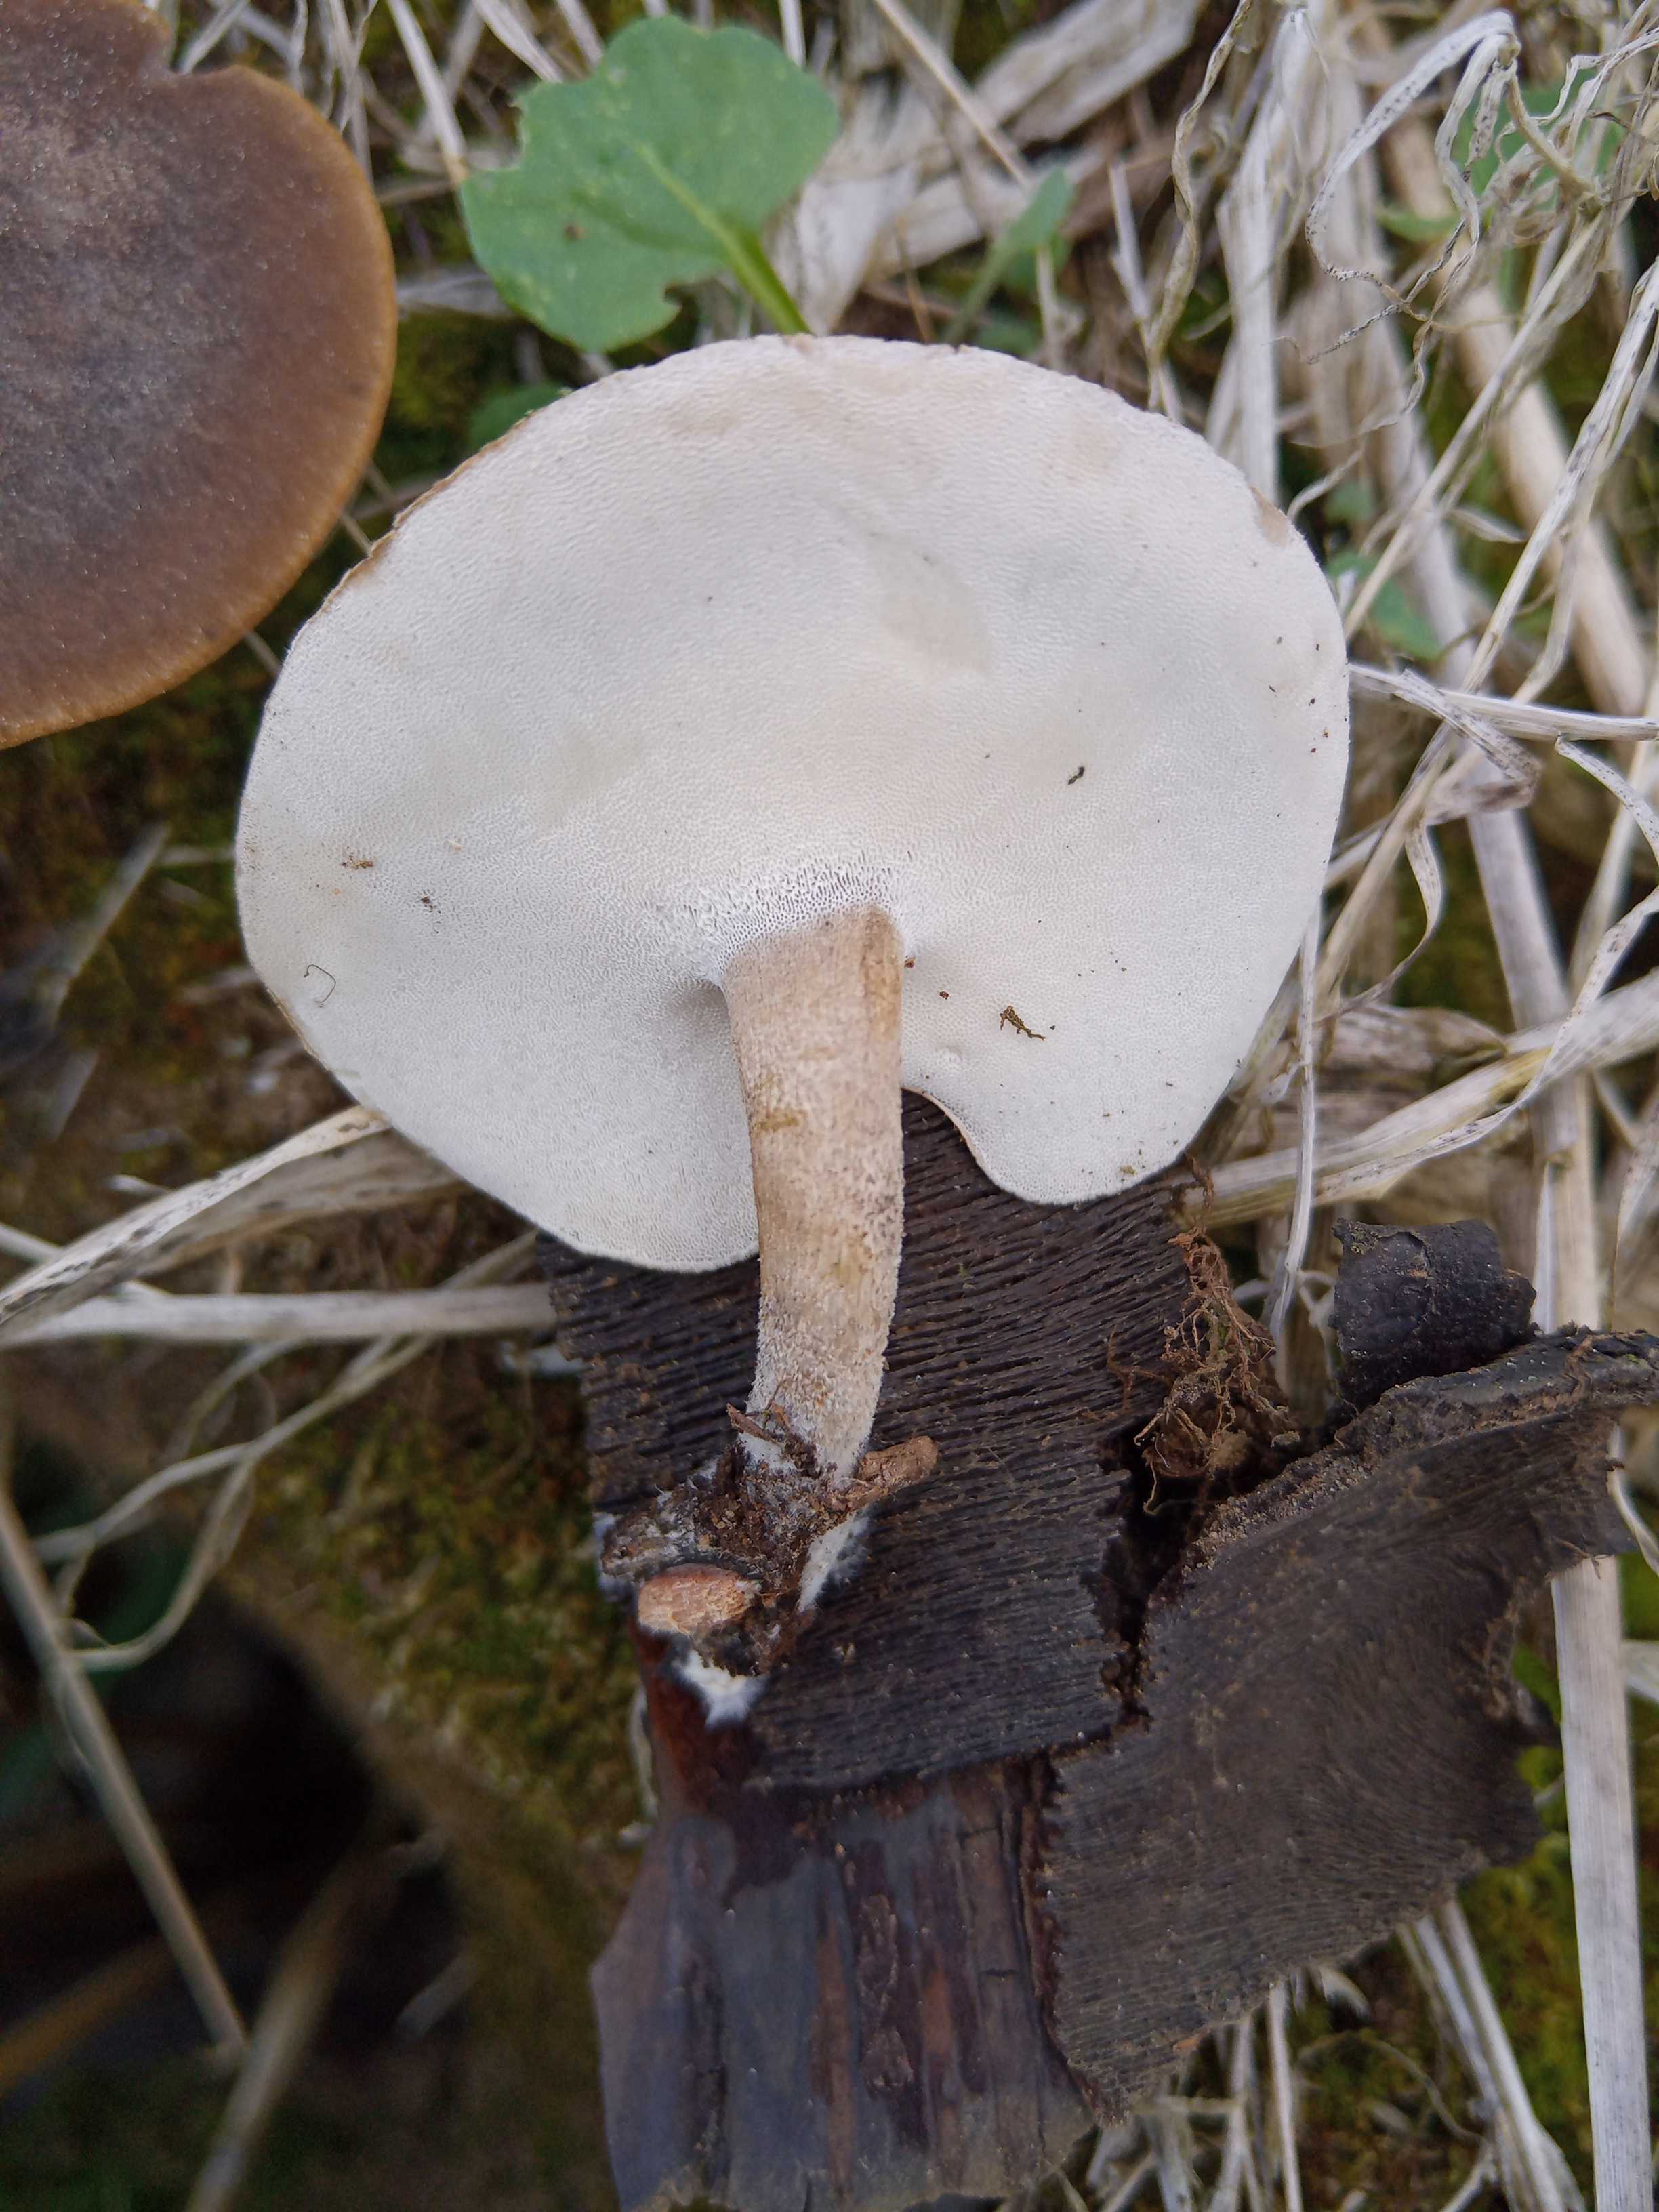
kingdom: Fungi
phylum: Basidiomycota
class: Agaricomycetes
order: Polyporales
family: Polyporaceae
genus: Lentinus
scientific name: Lentinus substrictus
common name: forårs-stilkporesvamp
